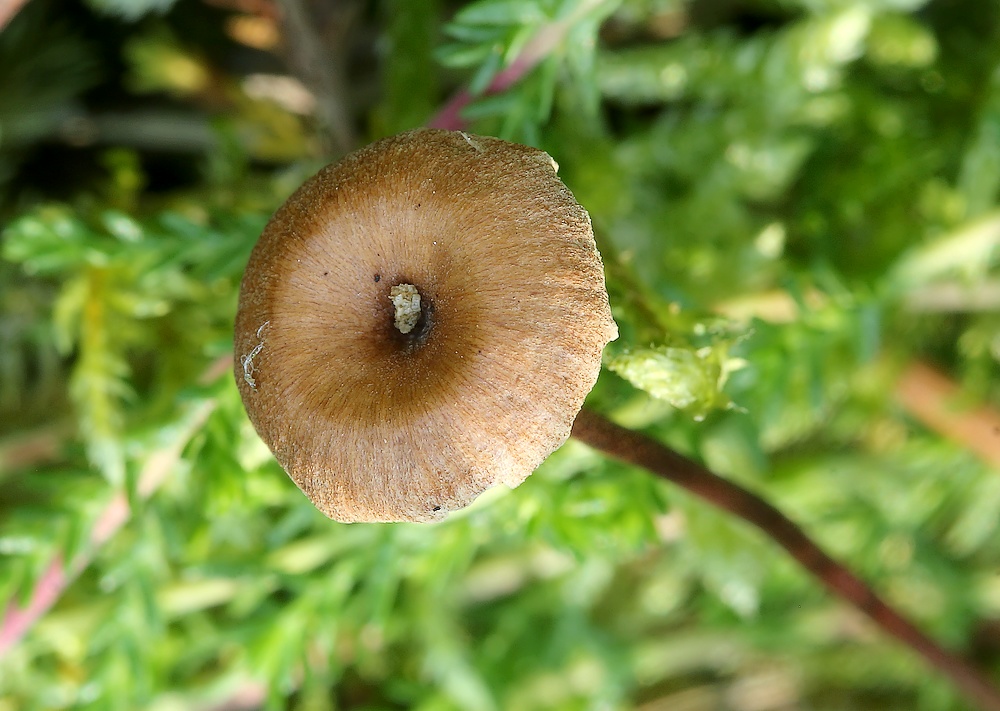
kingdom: Fungi
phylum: Basidiomycota
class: Agaricomycetes
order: Agaricales
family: Mycenaceae
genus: Xeromphalina
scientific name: Xeromphalina
